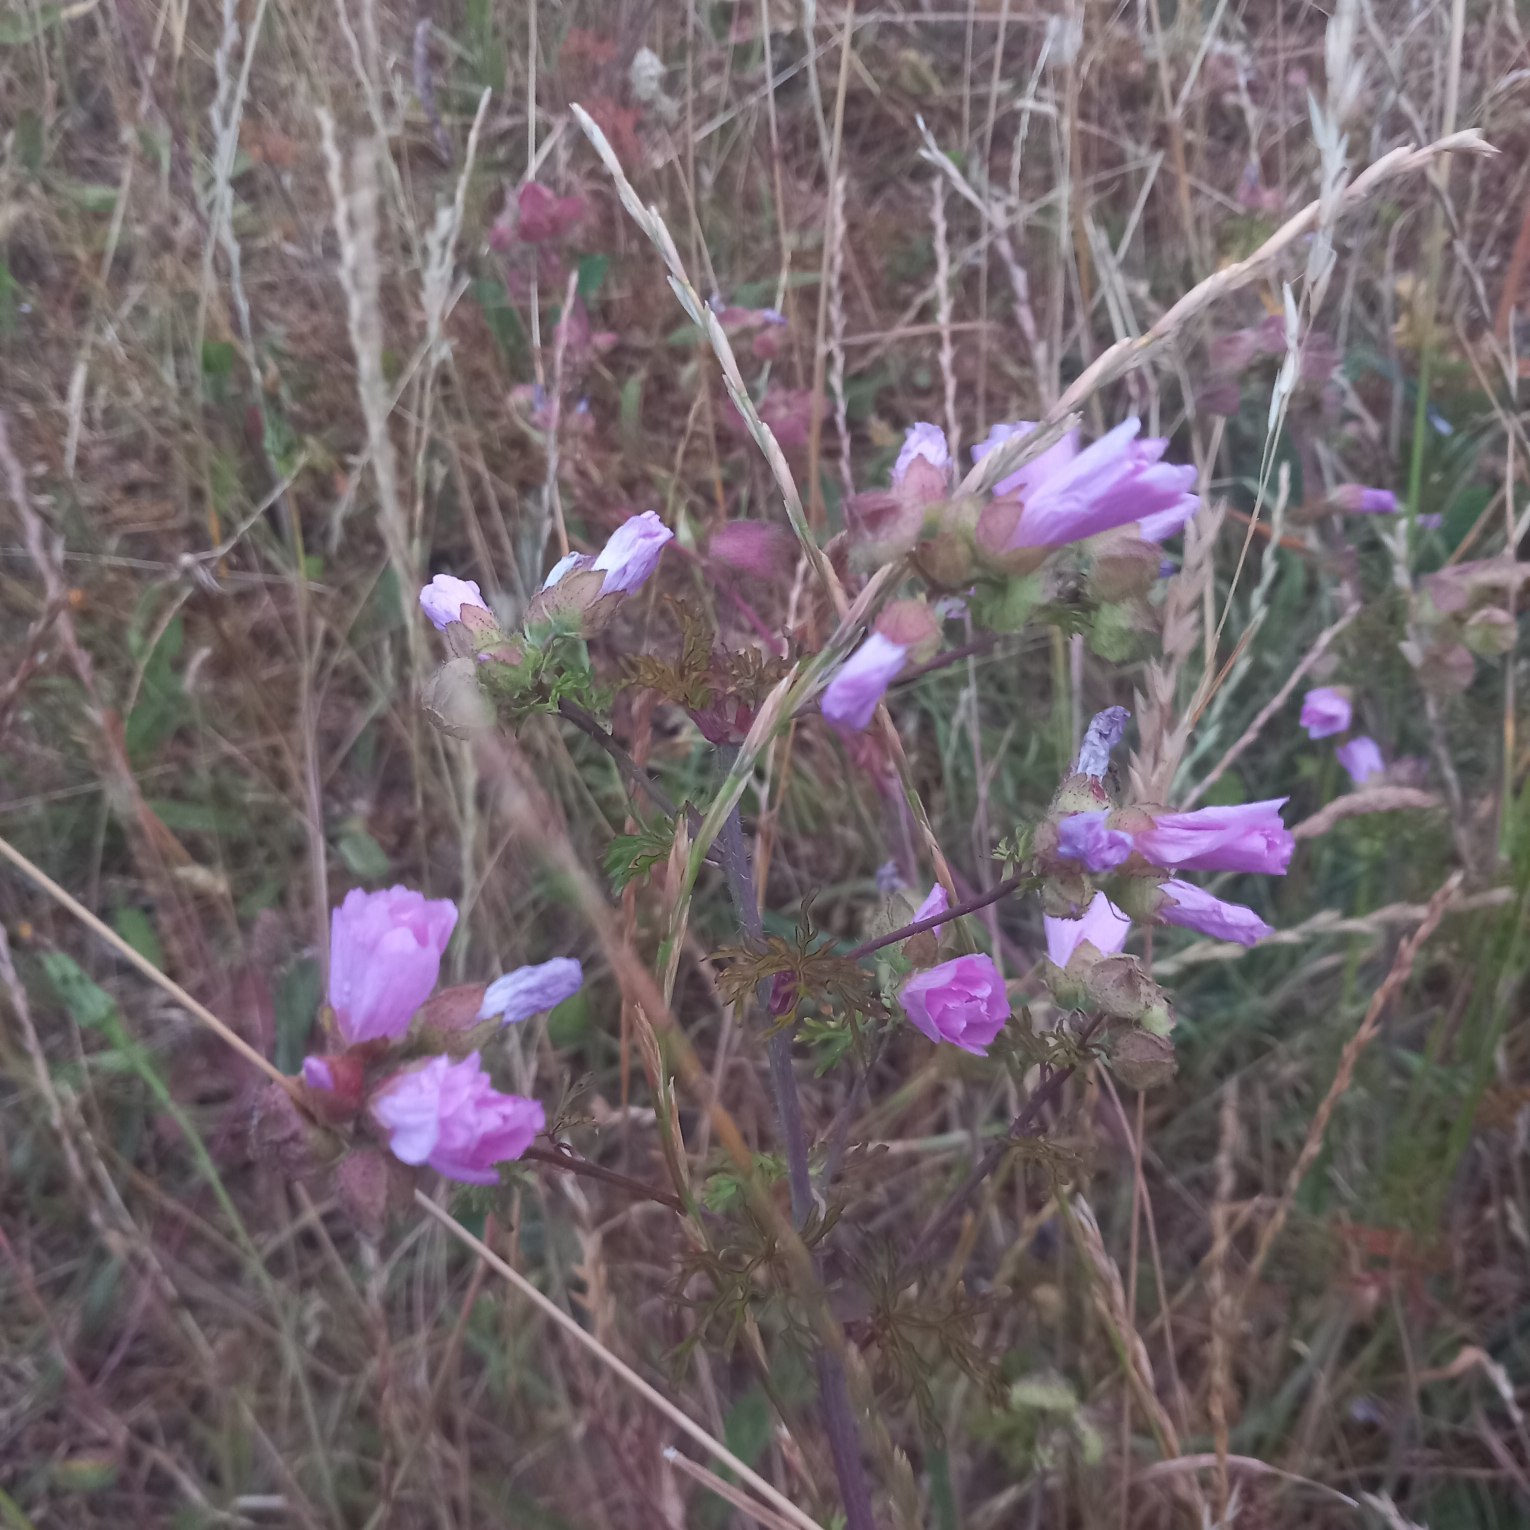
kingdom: Plantae
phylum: Tracheophyta
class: Magnoliopsida
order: Malvales
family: Malvaceae
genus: Malva
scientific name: Malva moschata
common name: Moskus-katost
